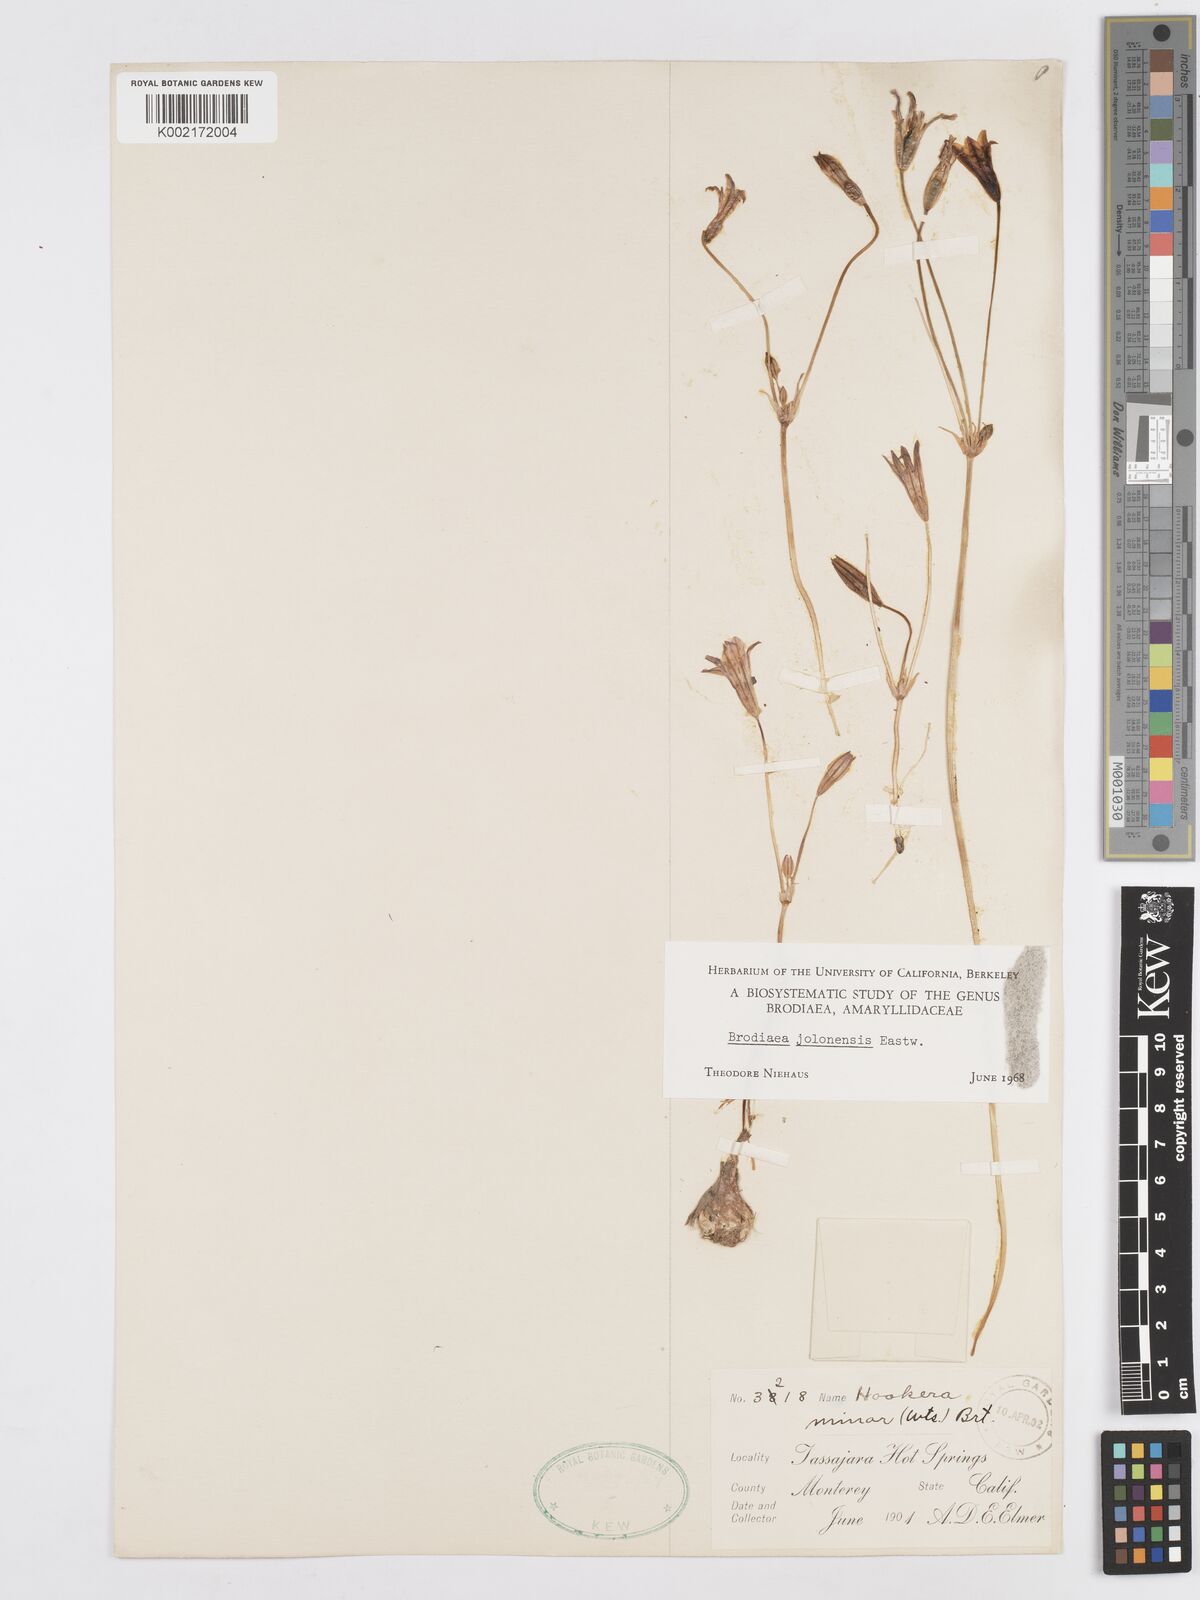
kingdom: Plantae
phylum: Tracheophyta
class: Liliopsida
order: Asparagales
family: Asparagaceae
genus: Brodiaea
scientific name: Brodiaea jolonensis
